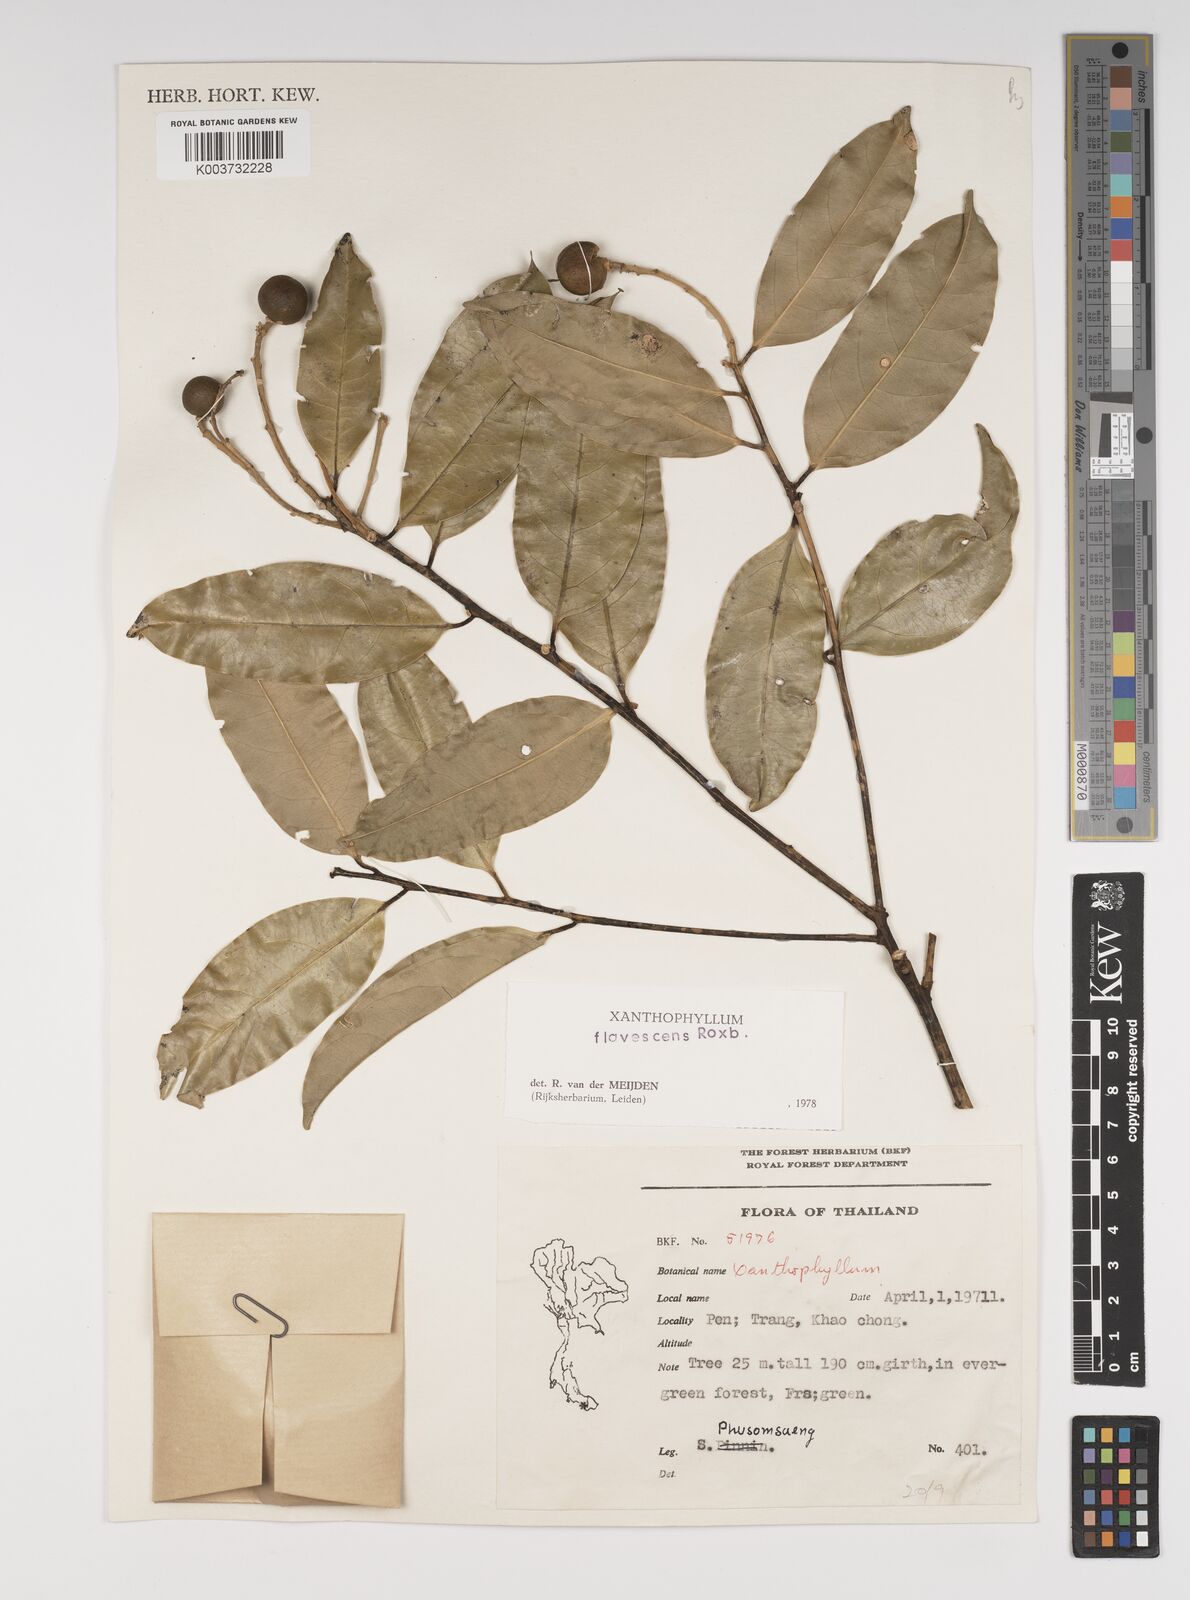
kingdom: Plantae
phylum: Tracheophyta
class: Magnoliopsida
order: Fabales
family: Polygalaceae
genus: Xanthophyllum
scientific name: Xanthophyllum flavescens
